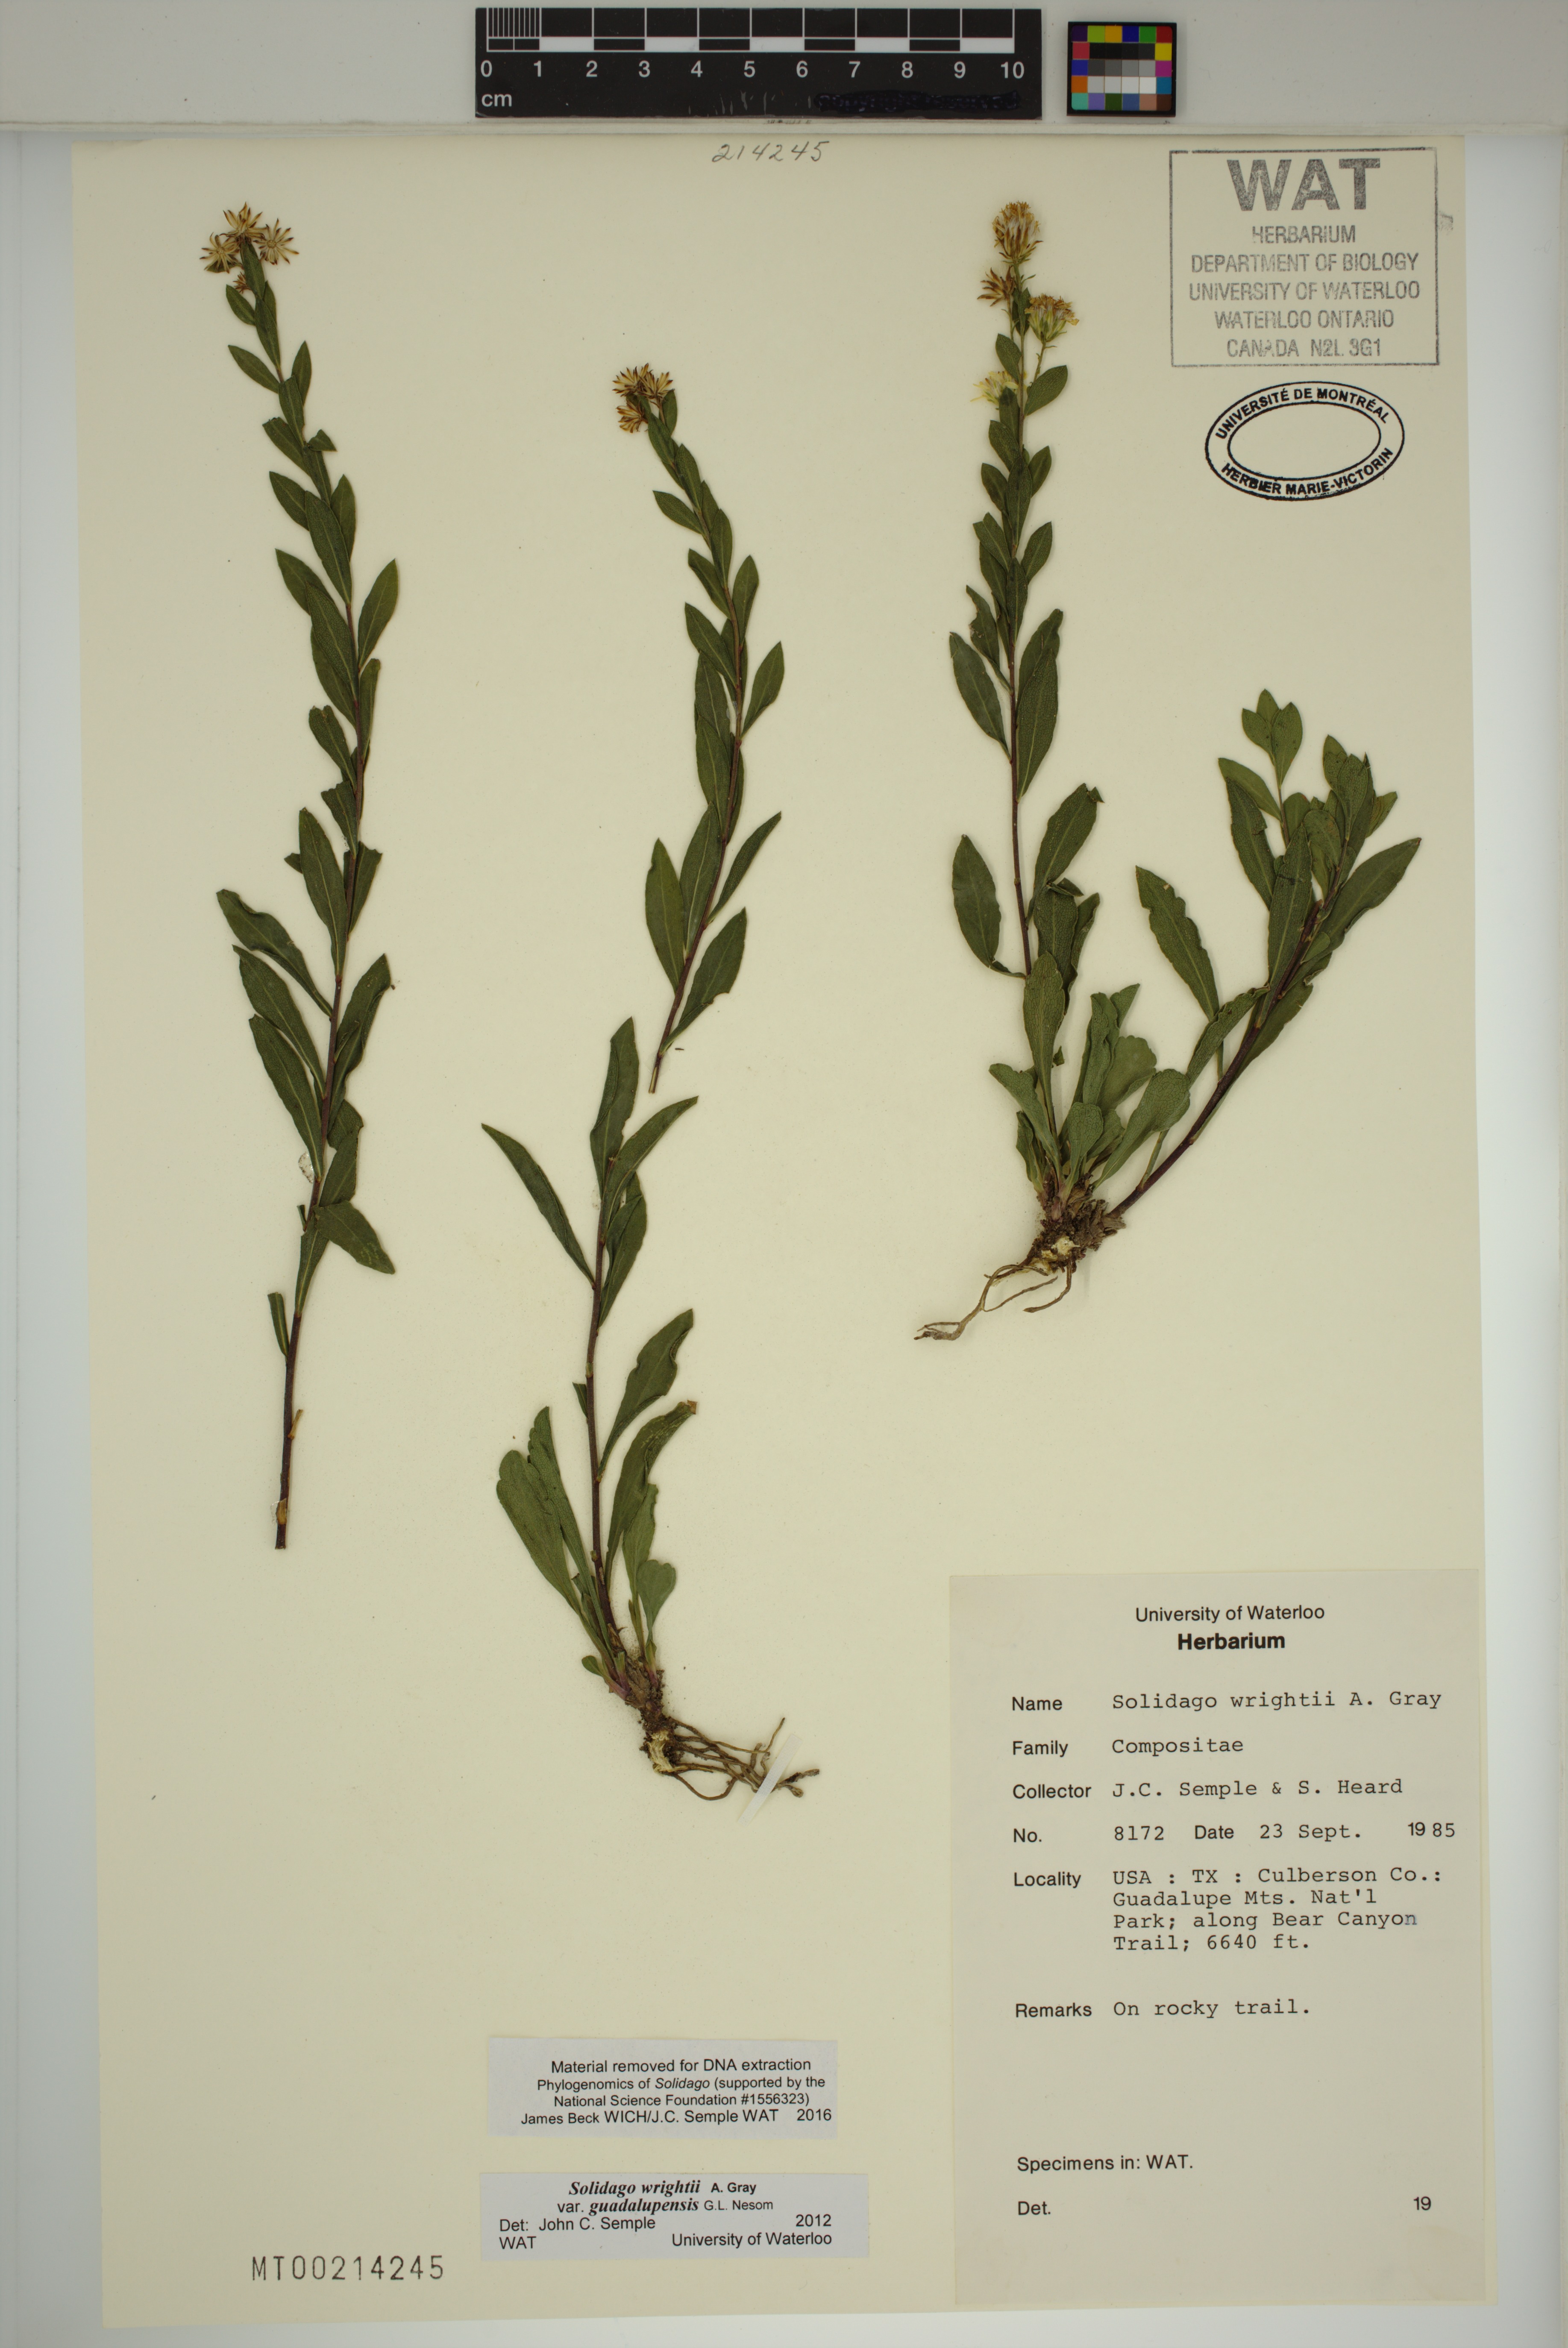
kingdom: Plantae
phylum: Tracheophyta
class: Magnoliopsida
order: Asterales
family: Asteraceae
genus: Solidago
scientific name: Solidago correllii
